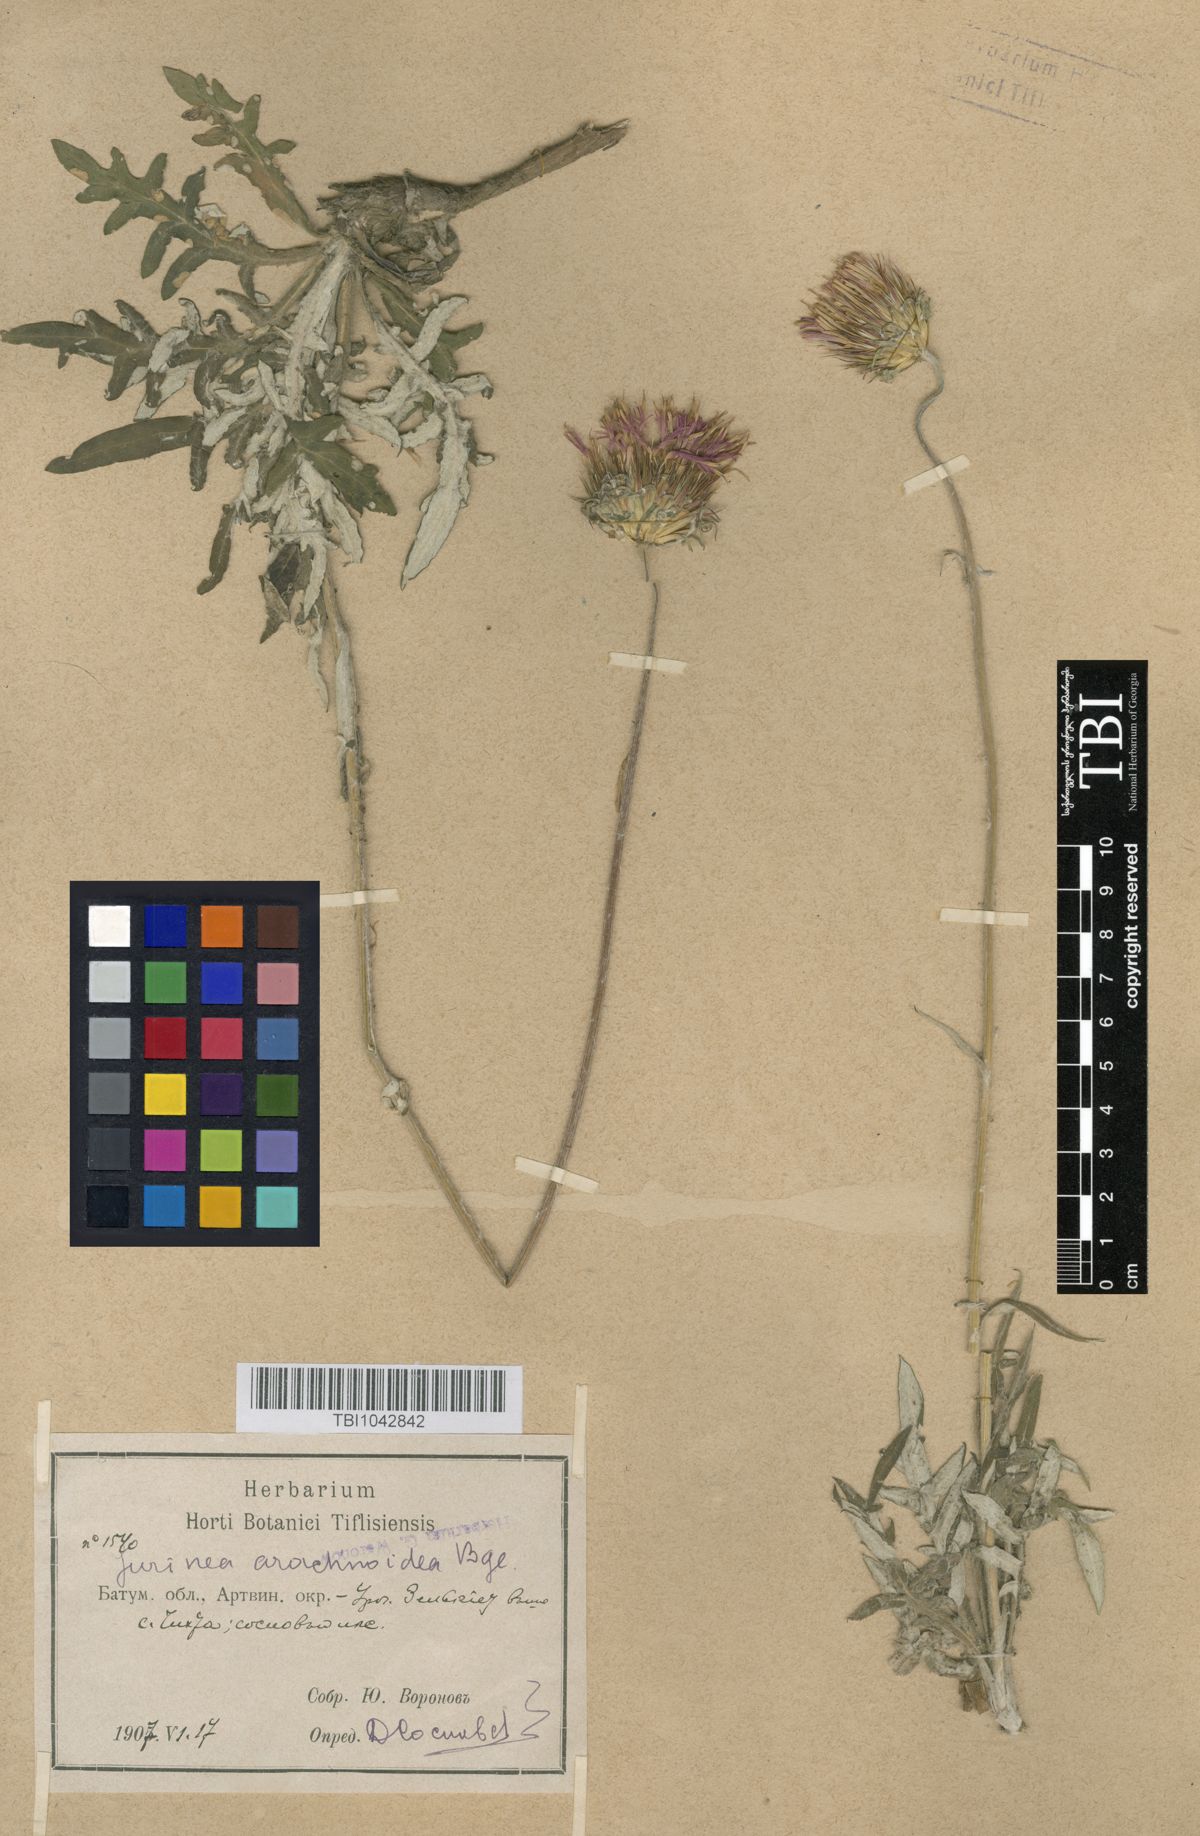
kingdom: Plantae
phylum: Tracheophyta
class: Magnoliopsida
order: Asterales
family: Asteraceae
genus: Jurinea
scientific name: Jurinea blanda
